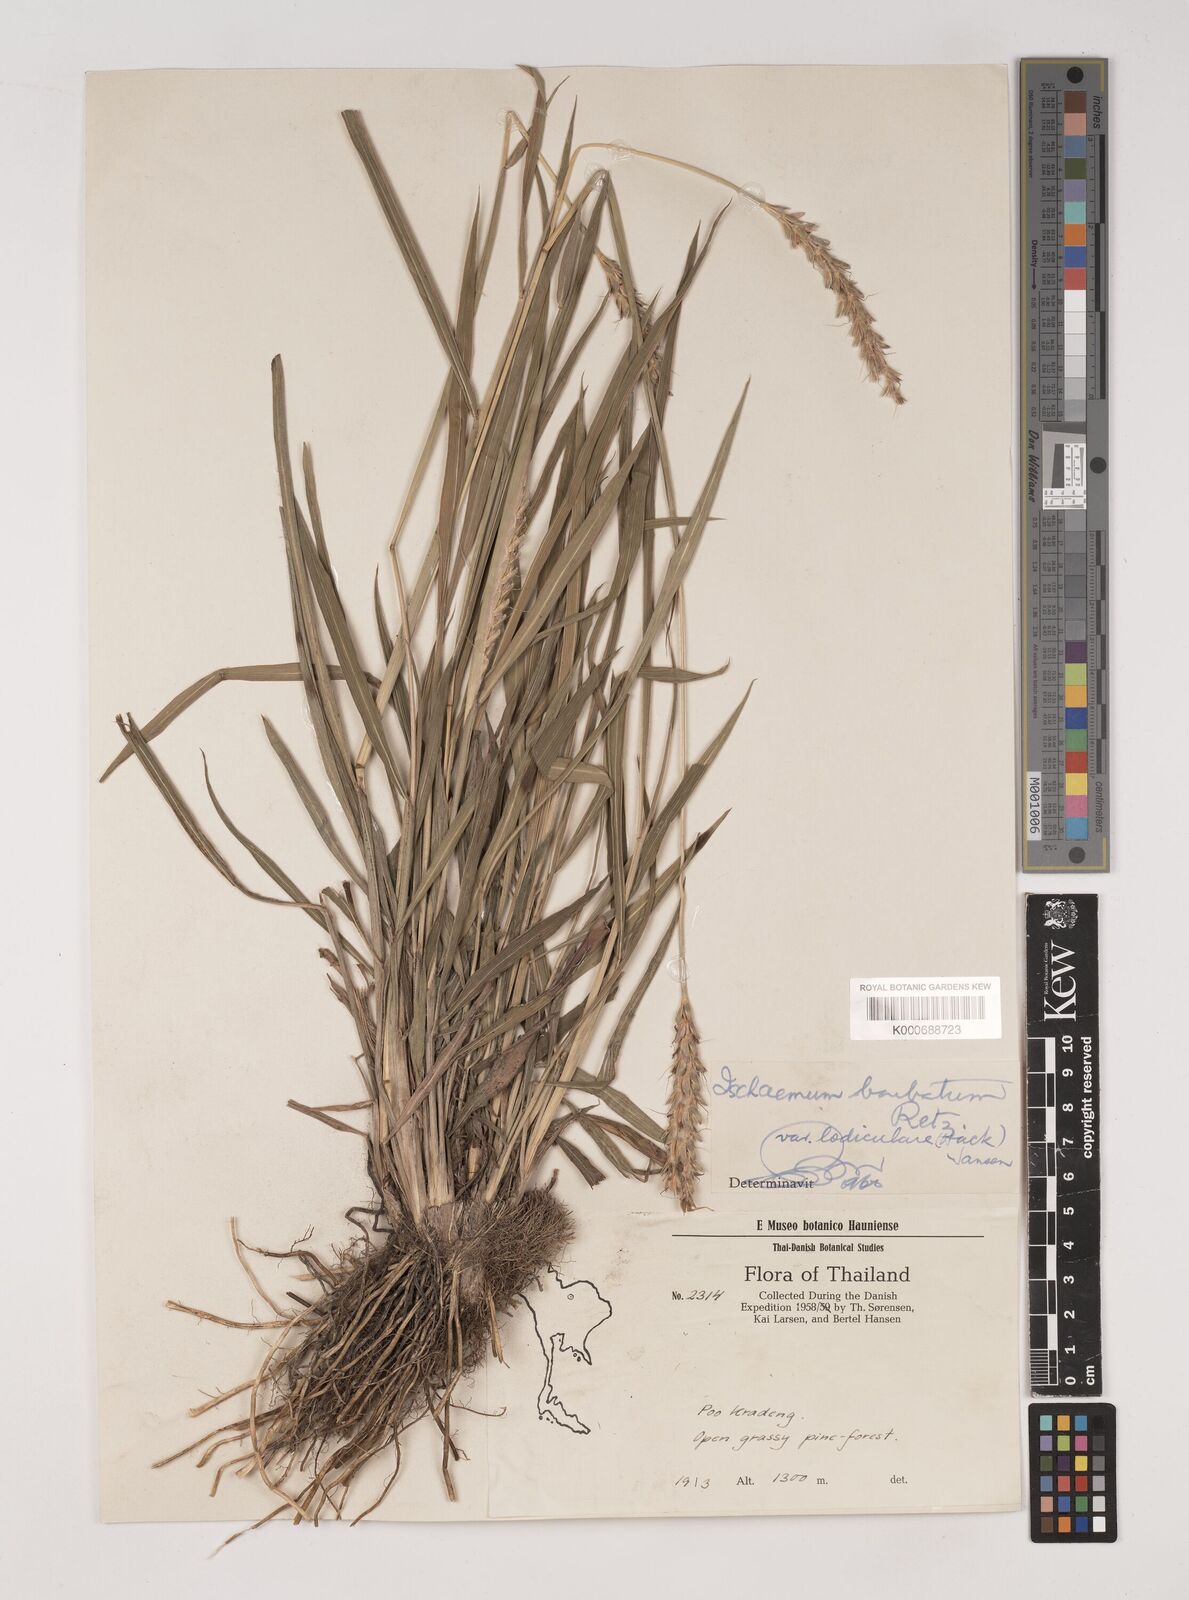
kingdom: Plantae
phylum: Tracheophyta
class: Liliopsida
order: Poales
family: Poaceae
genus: Ischaemum
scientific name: Ischaemum barbatum
